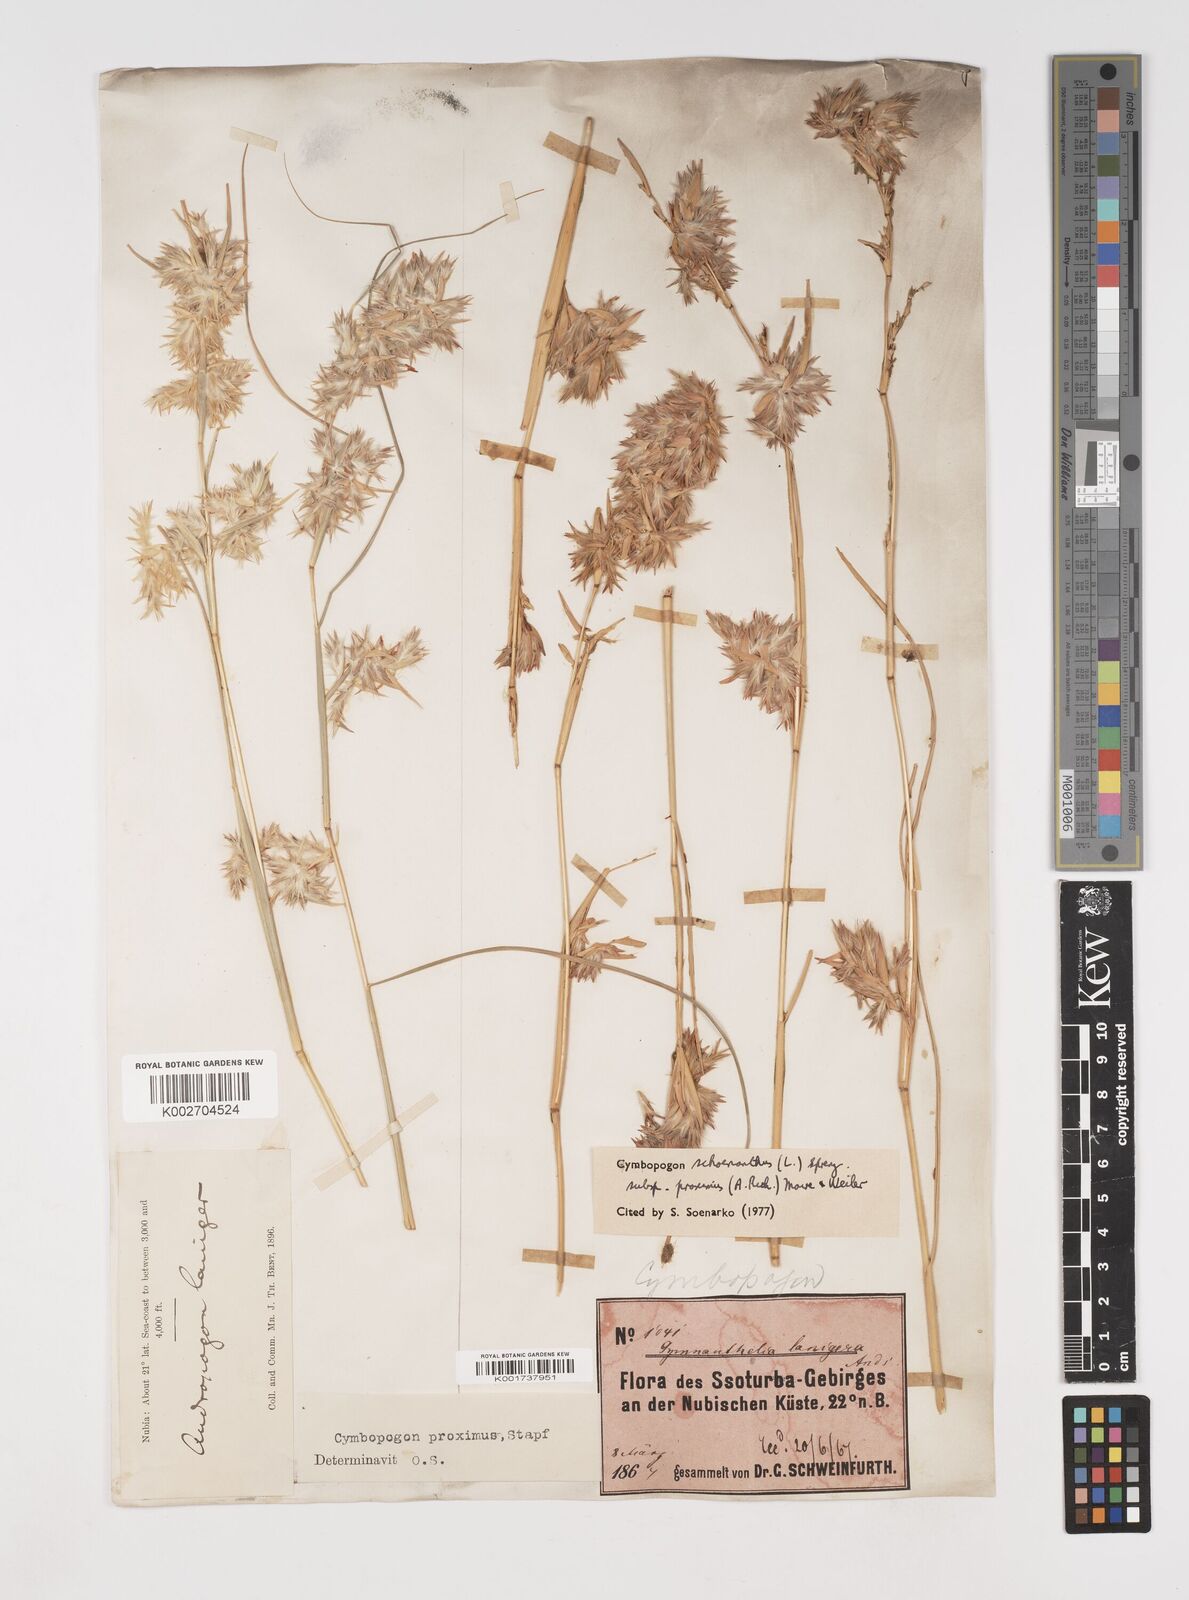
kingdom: Plantae
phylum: Tracheophyta
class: Liliopsida
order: Poales
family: Poaceae
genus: Cymbopogon
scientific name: Cymbopogon schoenanthus
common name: Geranium grass
